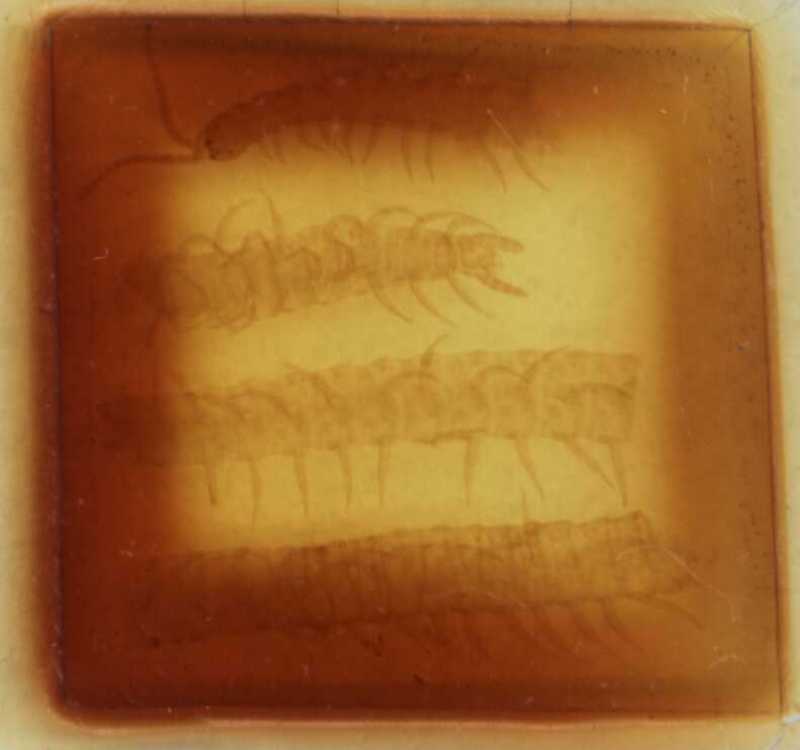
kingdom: Animalia
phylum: Arthropoda
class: Chilopoda
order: Geophilomorpha
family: Linotaeniidae
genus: Strigamia
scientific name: Strigamia transsilvanica
